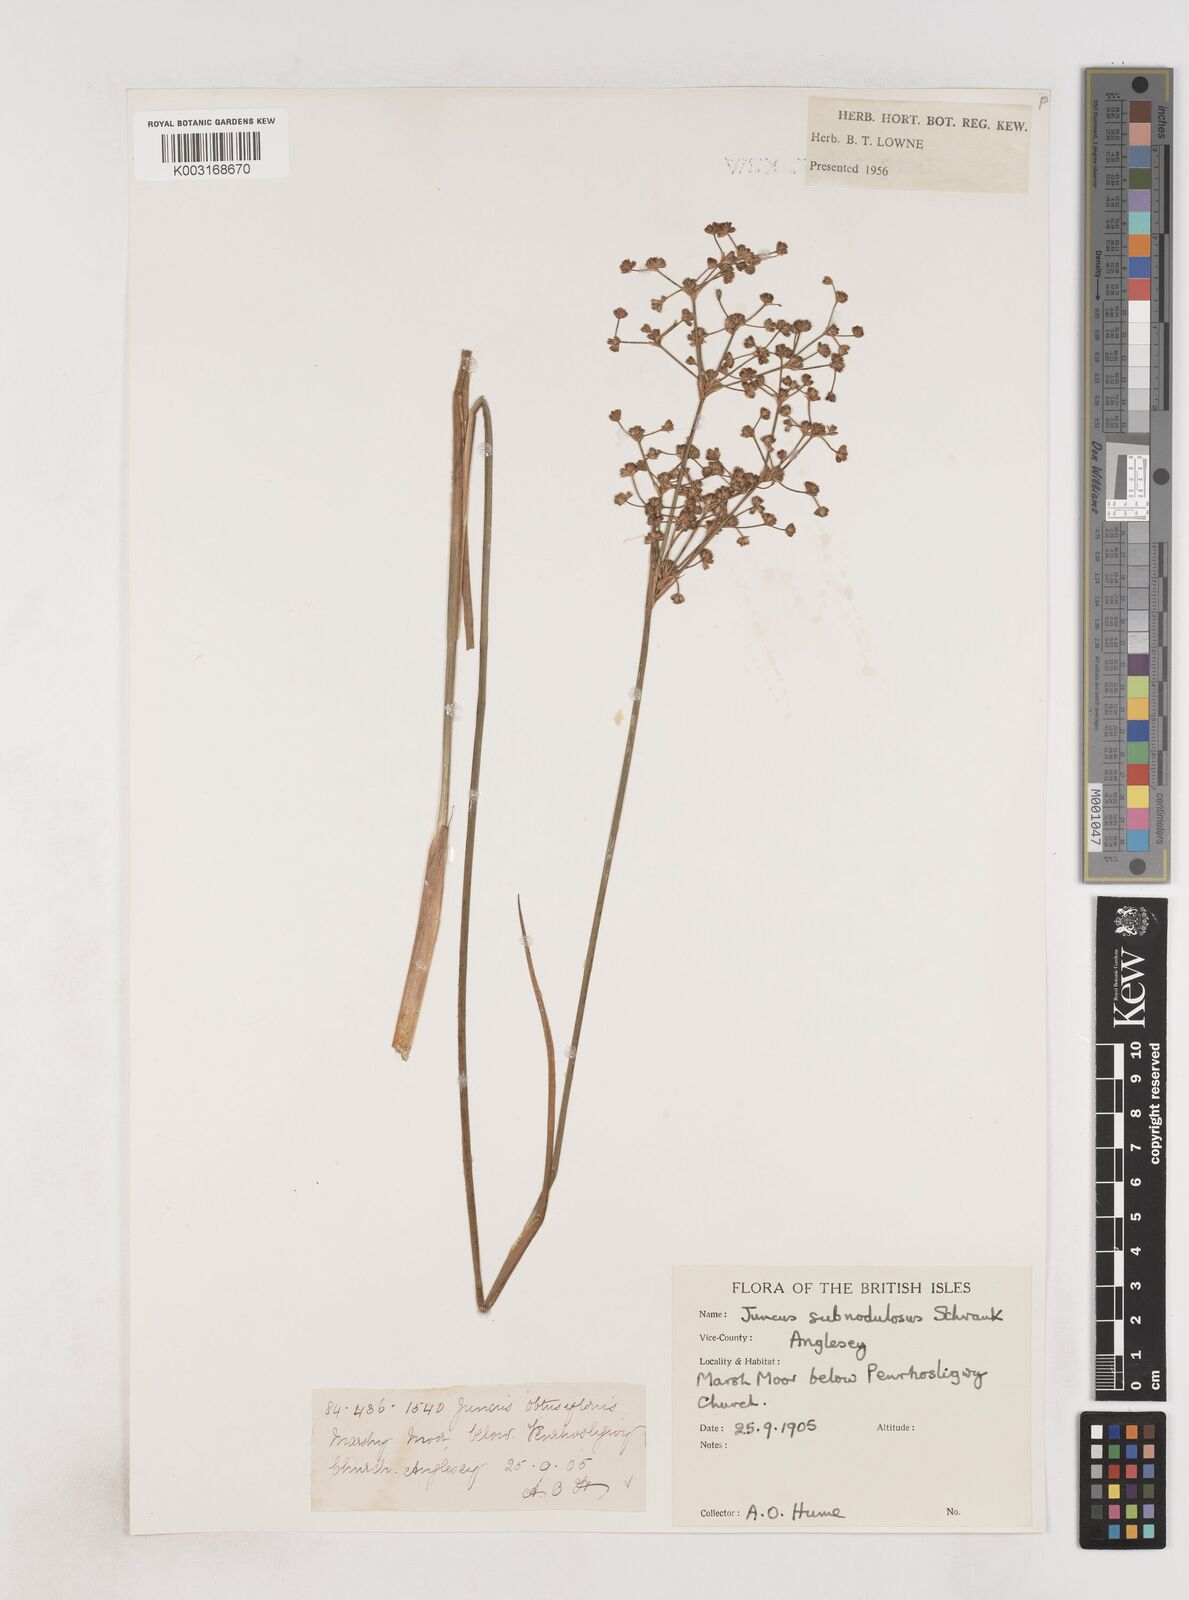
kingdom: Plantae
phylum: Tracheophyta
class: Liliopsida
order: Poales
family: Juncaceae
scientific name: Juncaceae
